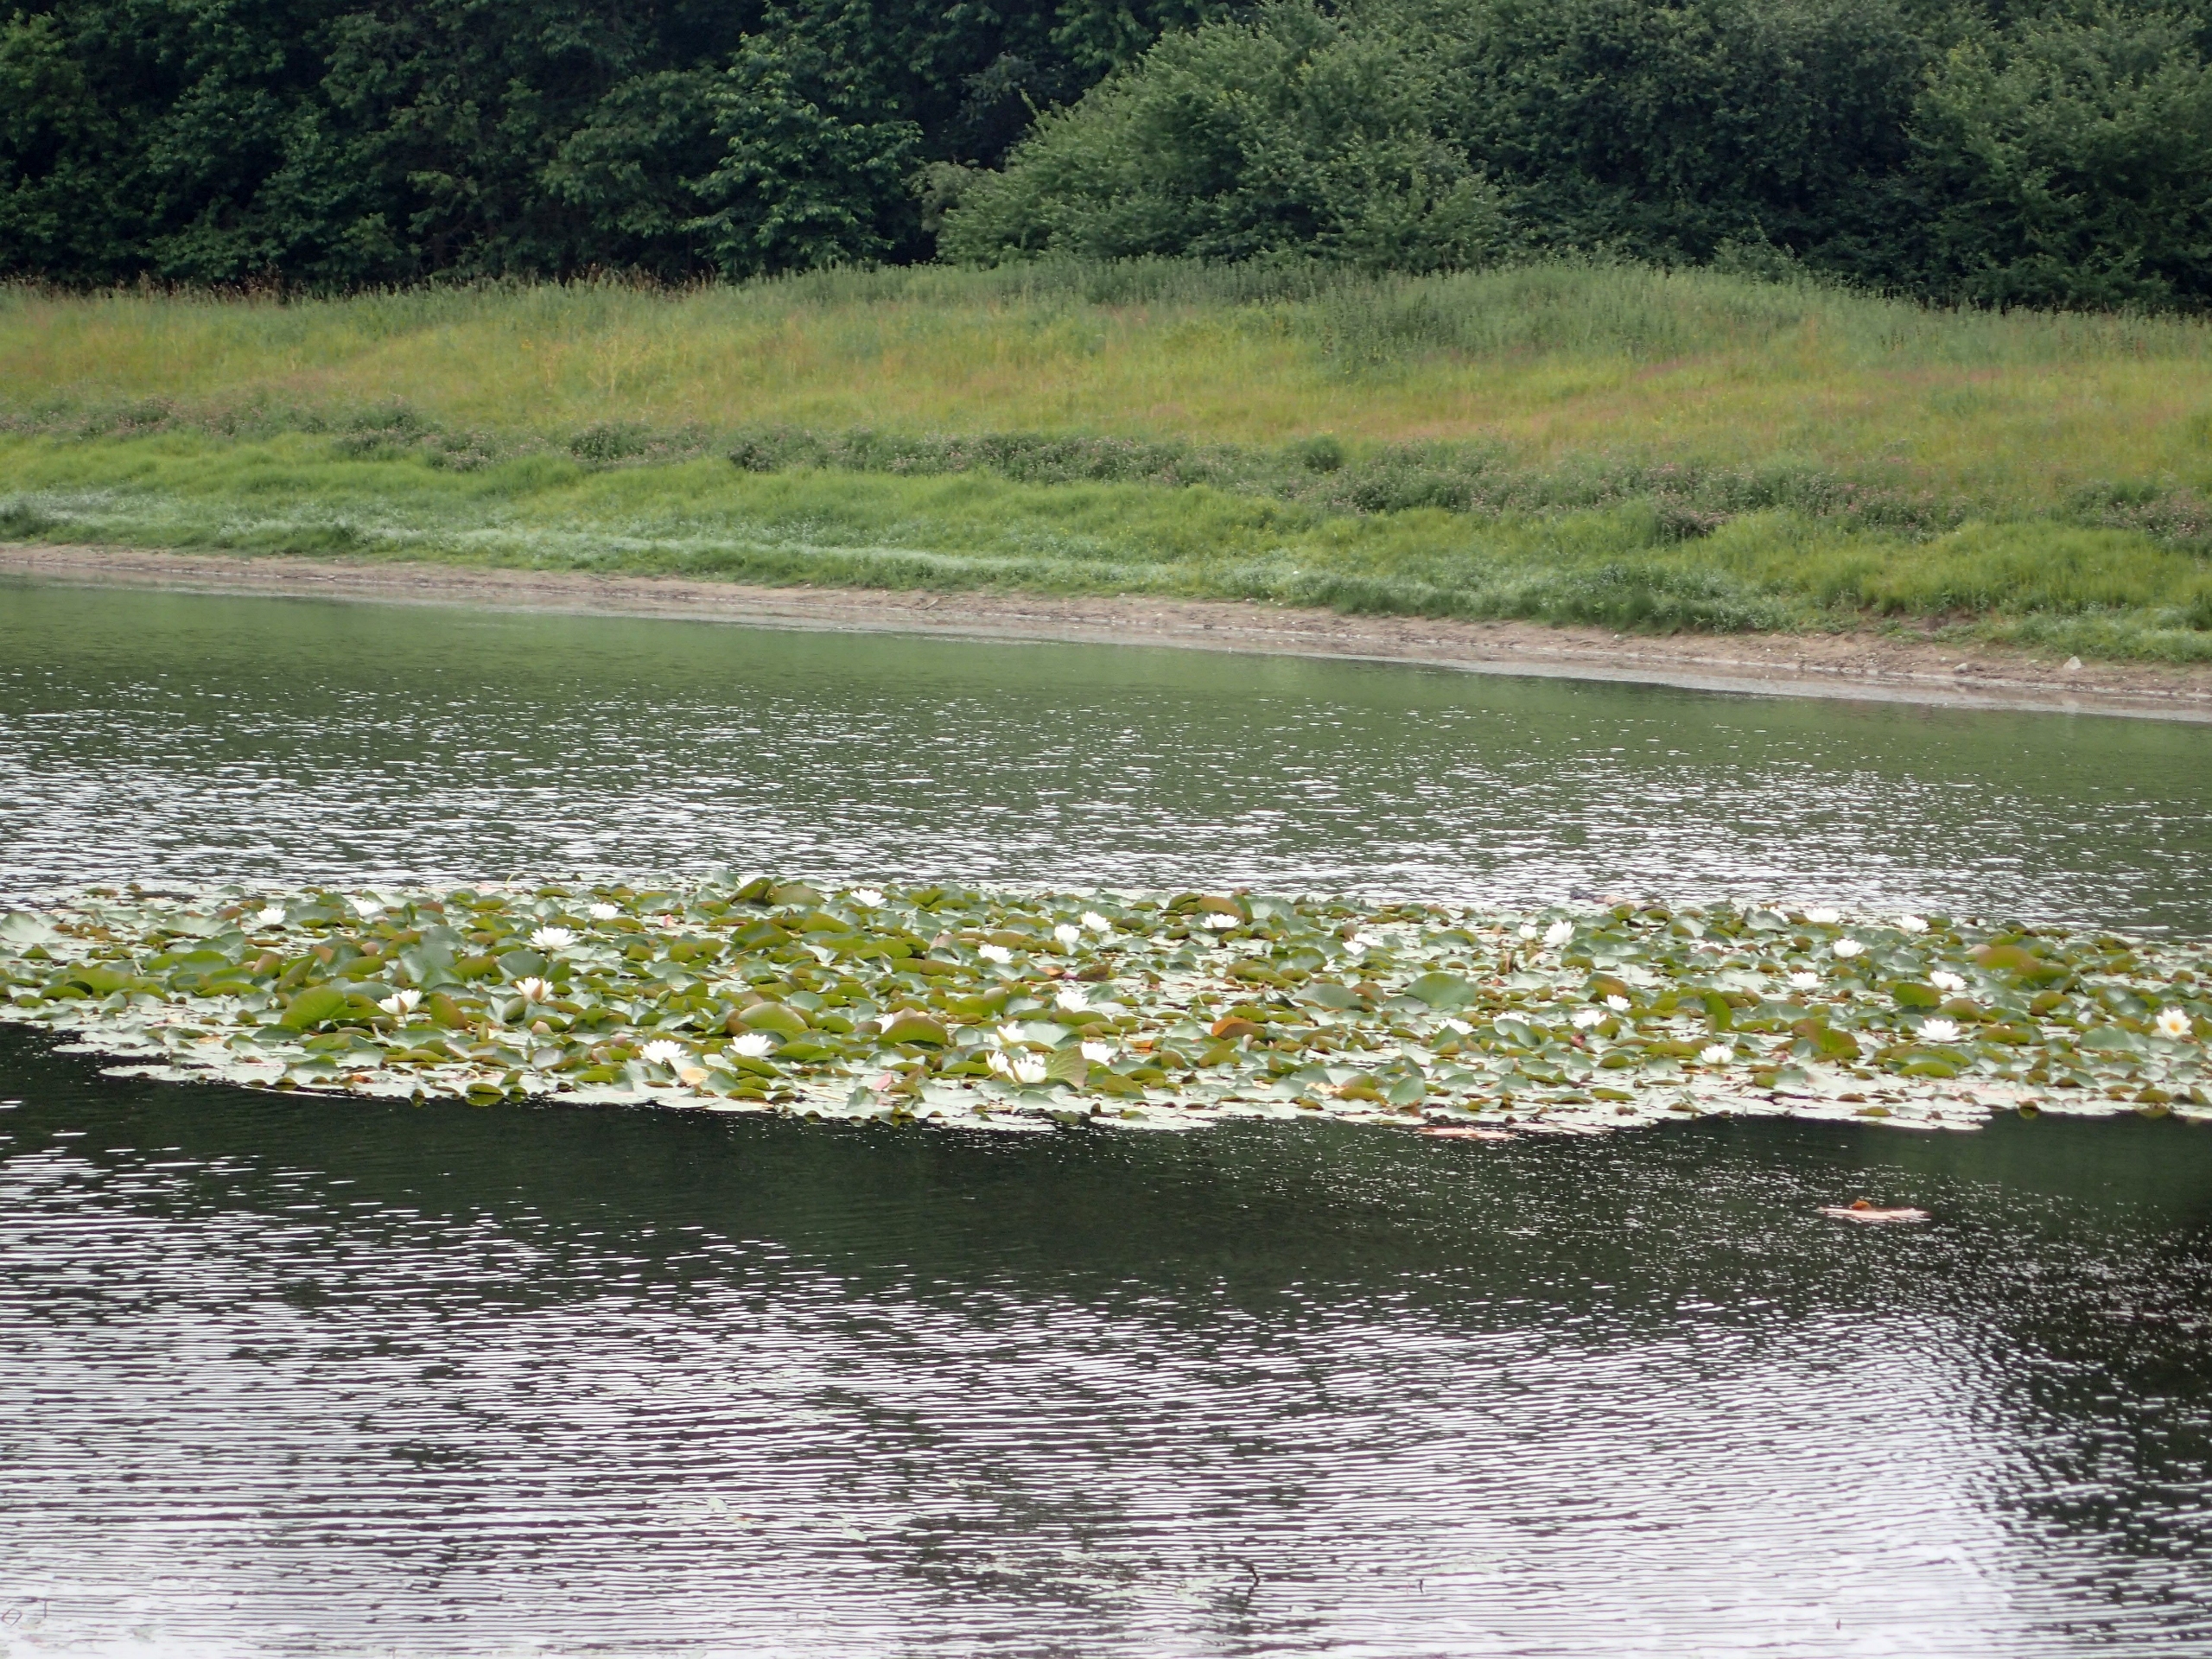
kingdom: Plantae
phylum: Tracheophyta
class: Magnoliopsida
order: Nymphaeales
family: Nymphaeaceae
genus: Nymphaea
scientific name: Nymphaea alba
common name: Hvid åkande
